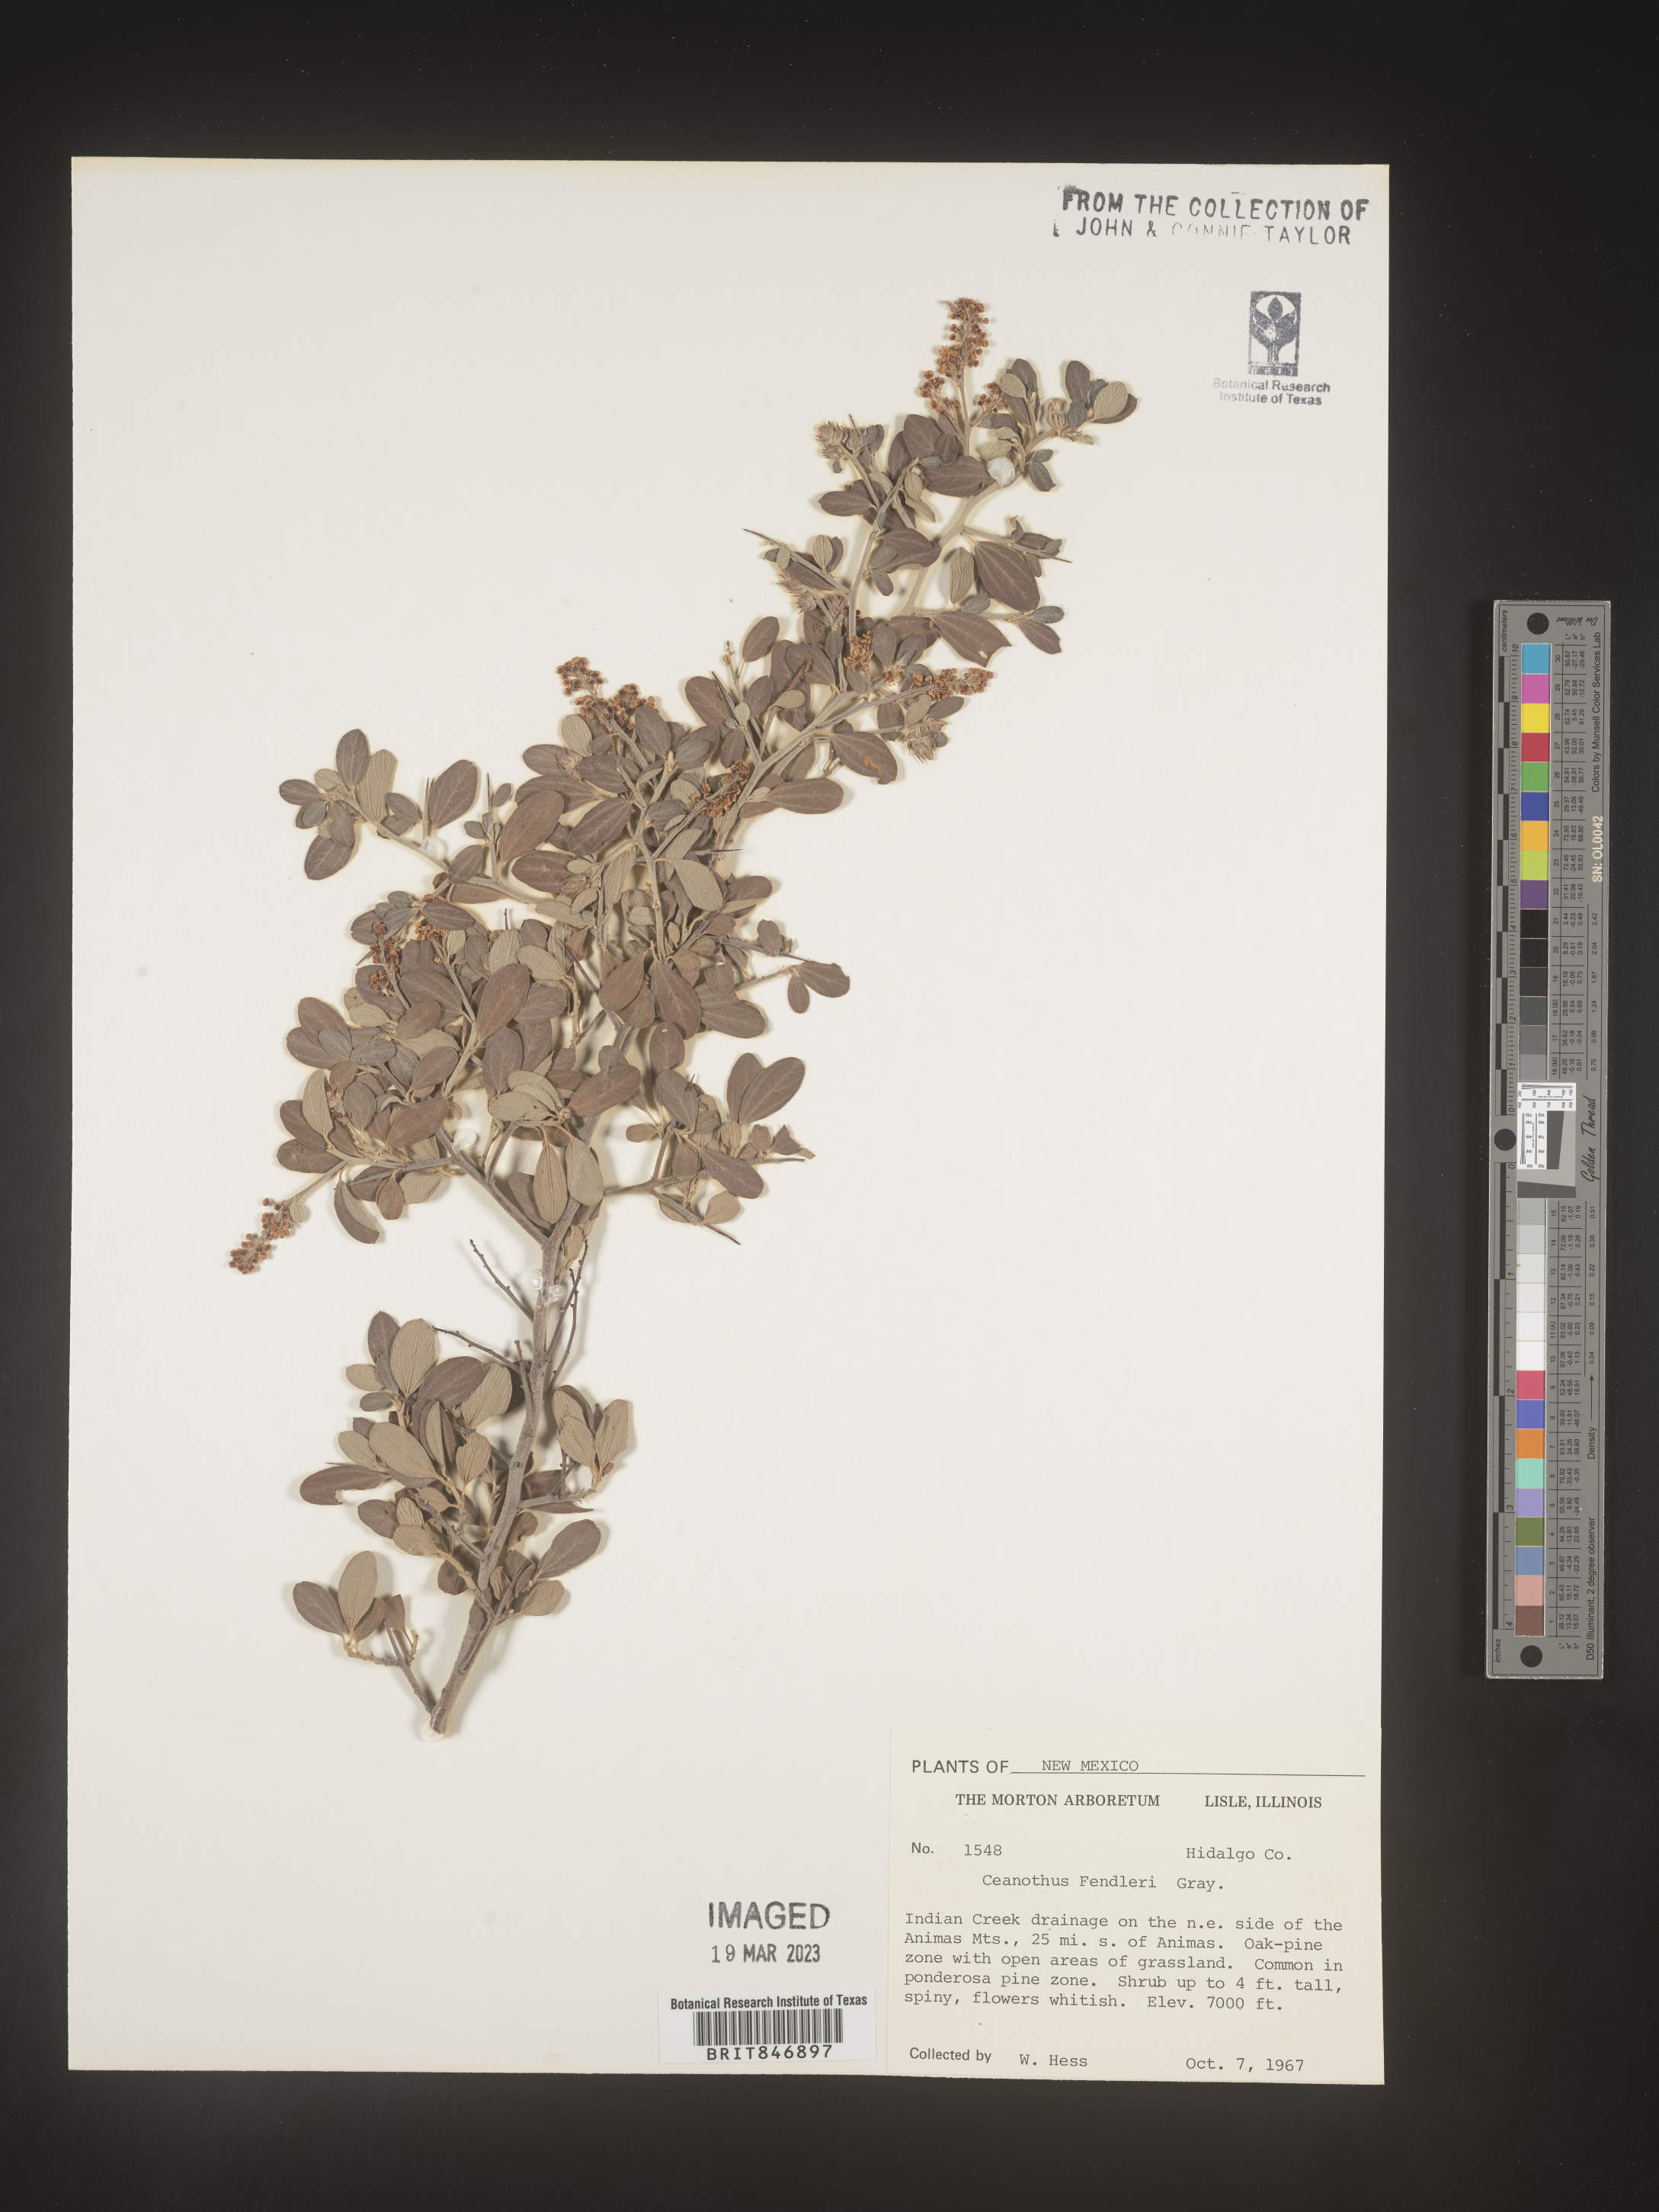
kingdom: Plantae
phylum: Tracheophyta
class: Magnoliopsida
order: Rosales
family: Rhamnaceae
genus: Ceanothus
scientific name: Ceanothus fendleri
